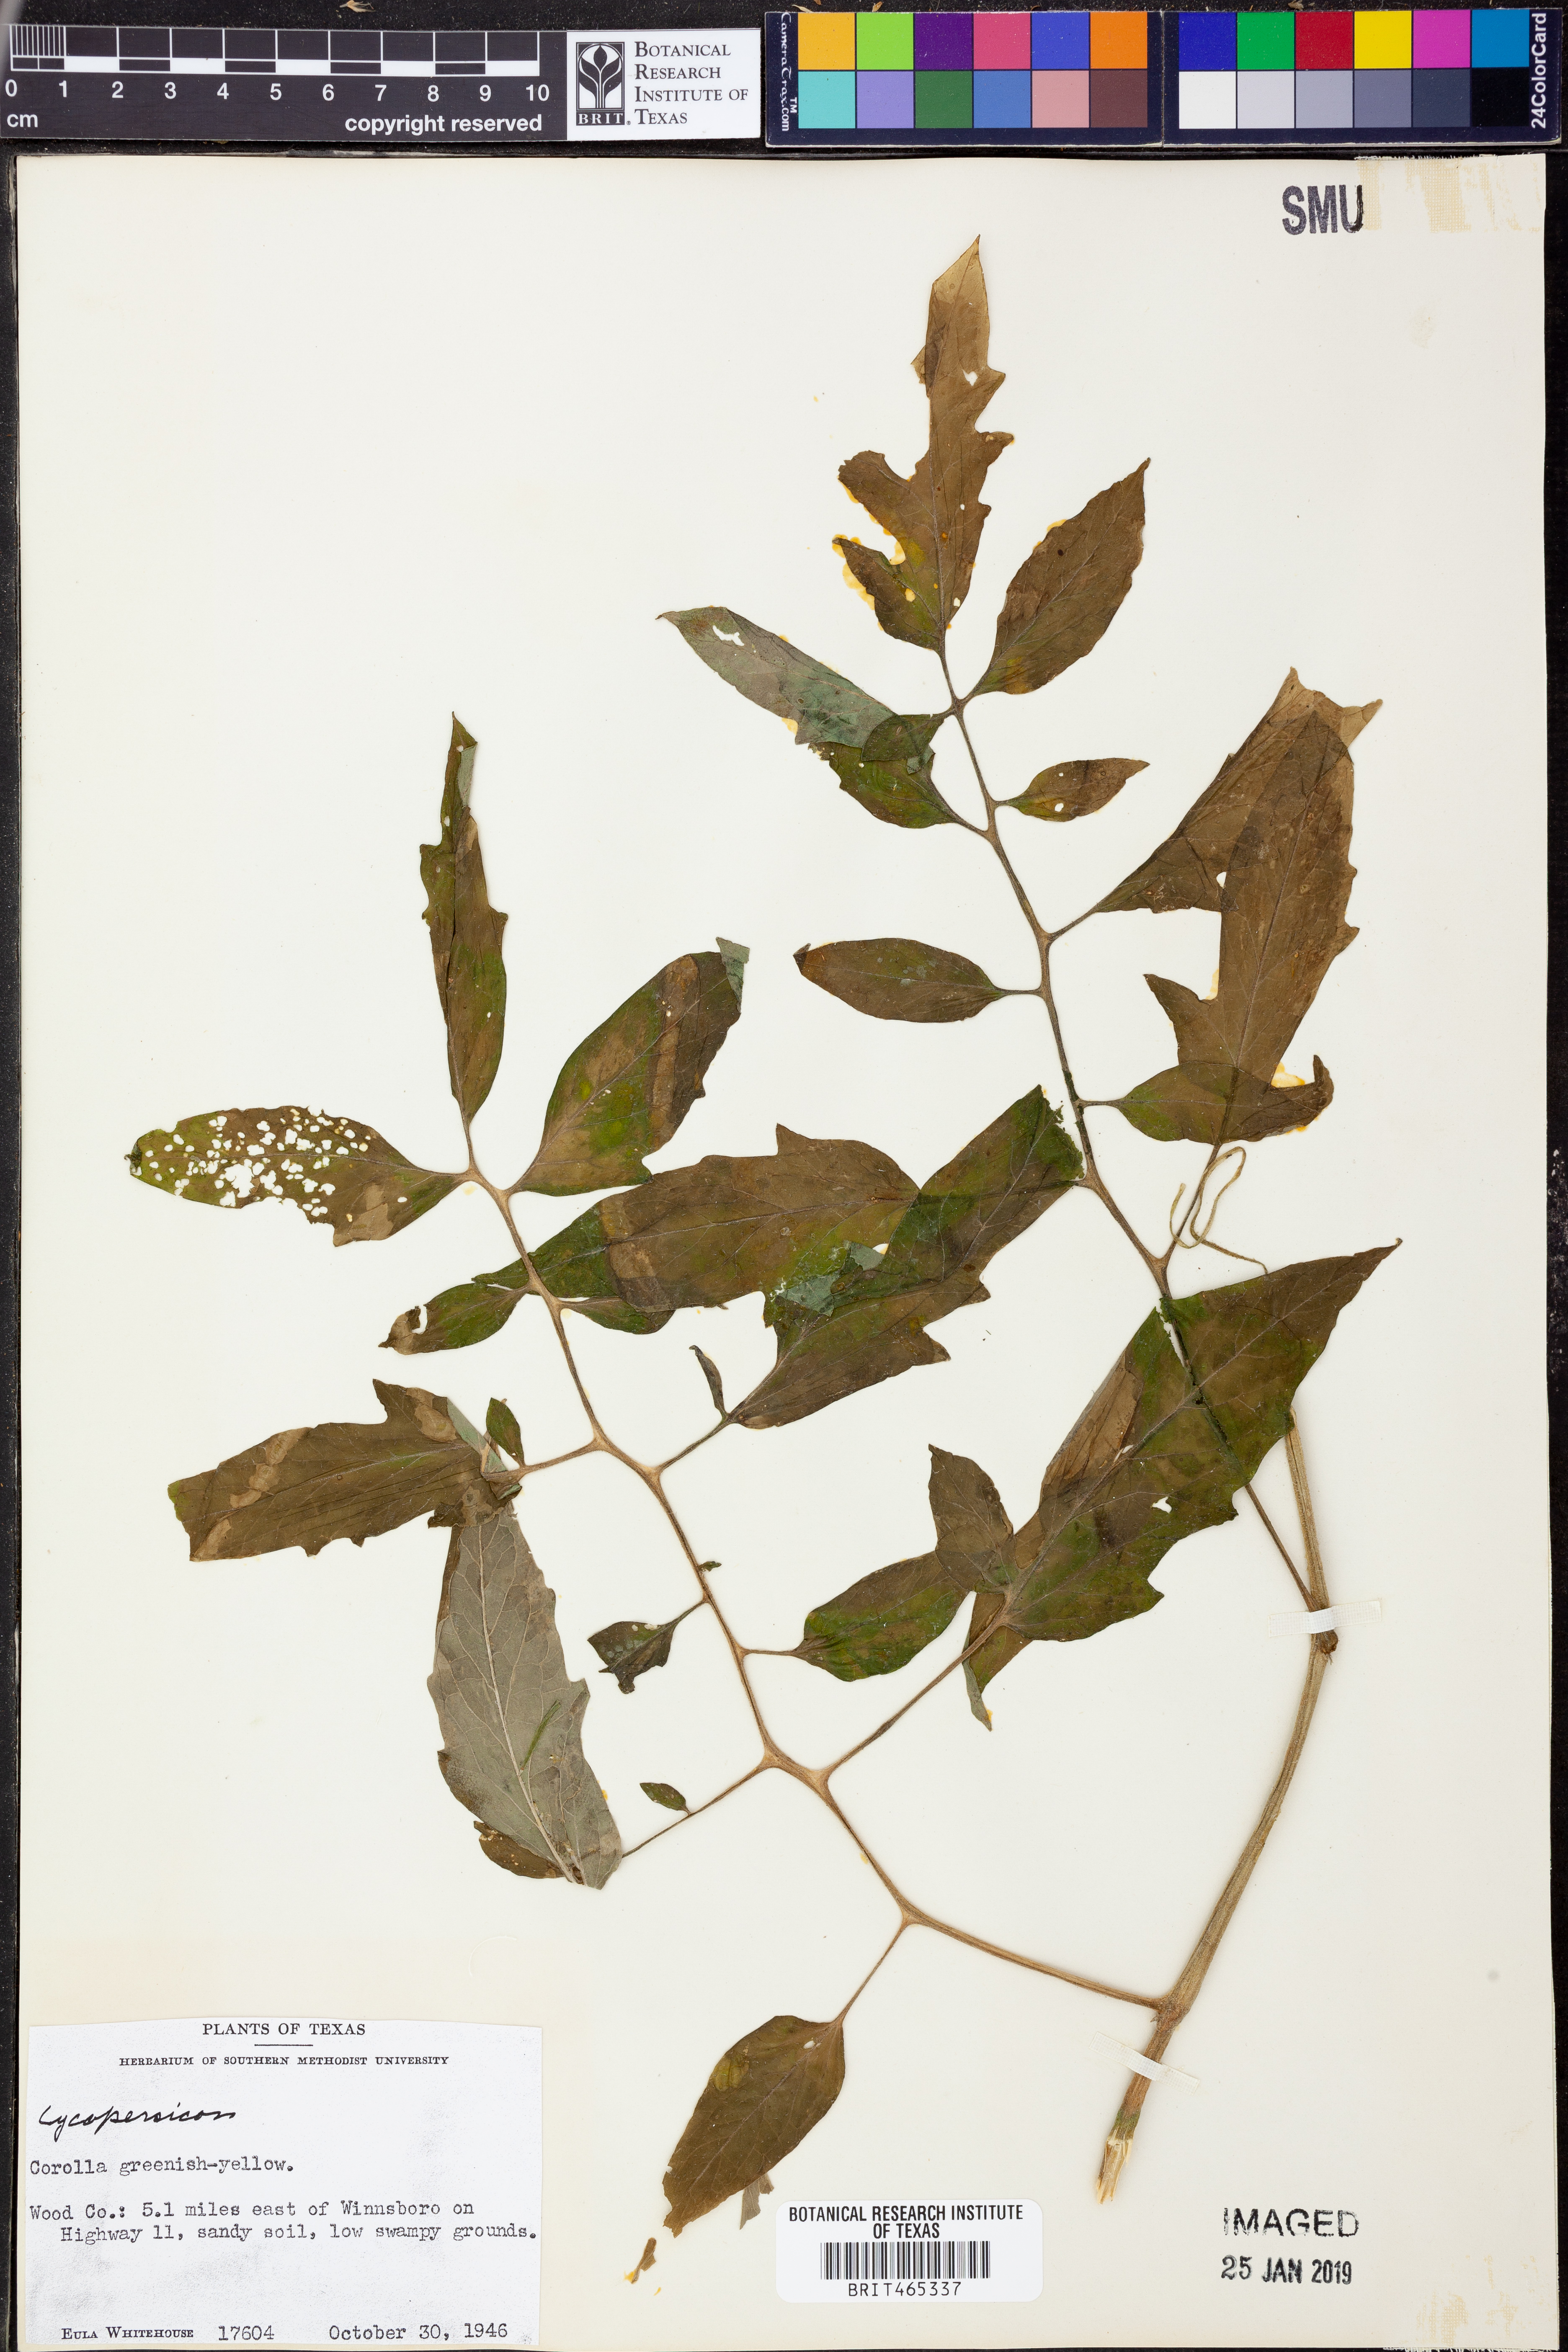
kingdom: Plantae
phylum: Tracheophyta
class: Magnoliopsida
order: Solanales
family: Solanaceae
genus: Lycopersicon
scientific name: Lycopersicon
